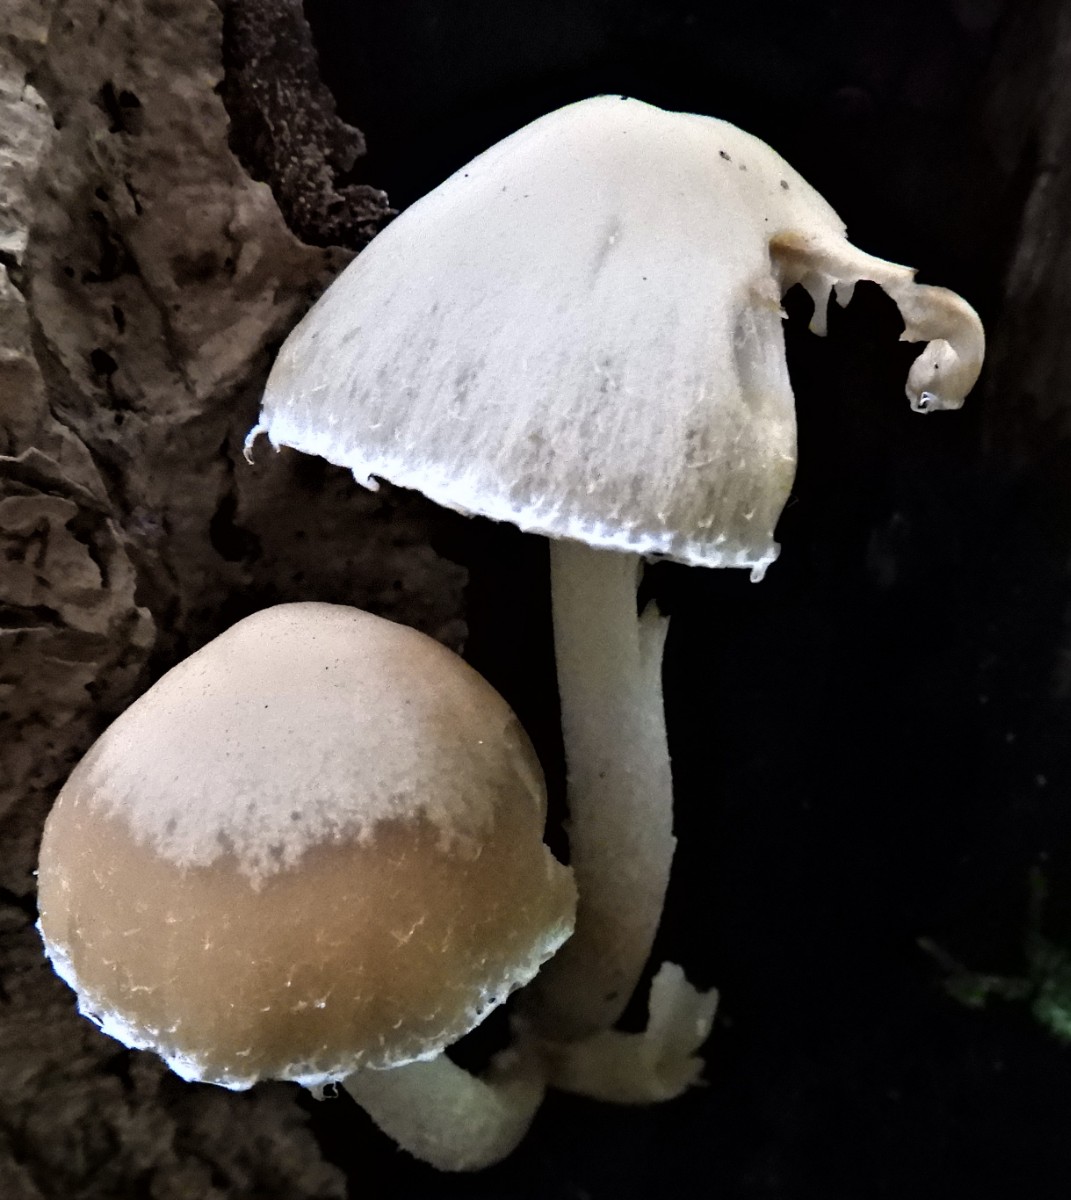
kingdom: Fungi
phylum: Basidiomycota
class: Agaricomycetes
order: Agaricales
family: Psathyrellaceae
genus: Candolleomyces
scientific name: Candolleomyces candolleanus
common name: Candolles mørkhat
